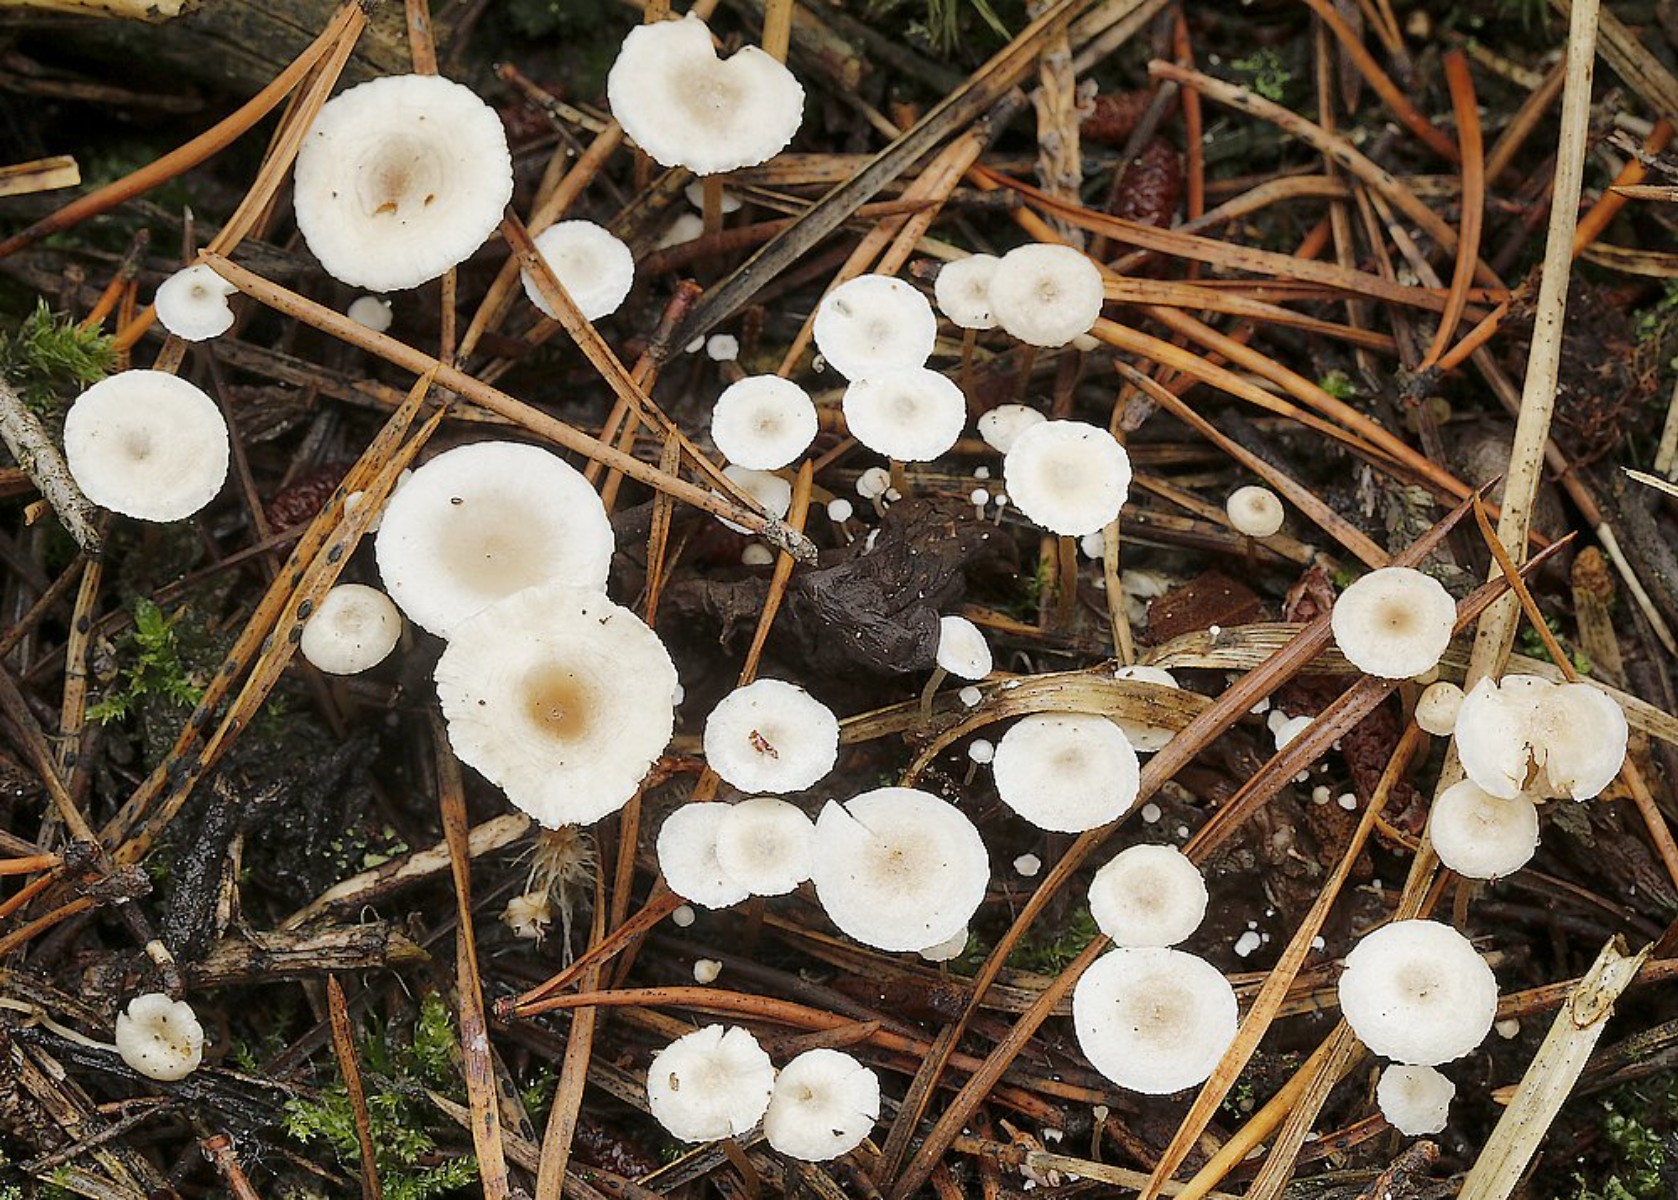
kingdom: Fungi
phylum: Basidiomycota
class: Agaricomycetes
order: Agaricales
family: Tricholomataceae
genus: Collybia
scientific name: Collybia cirrhata
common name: silke-lighat
